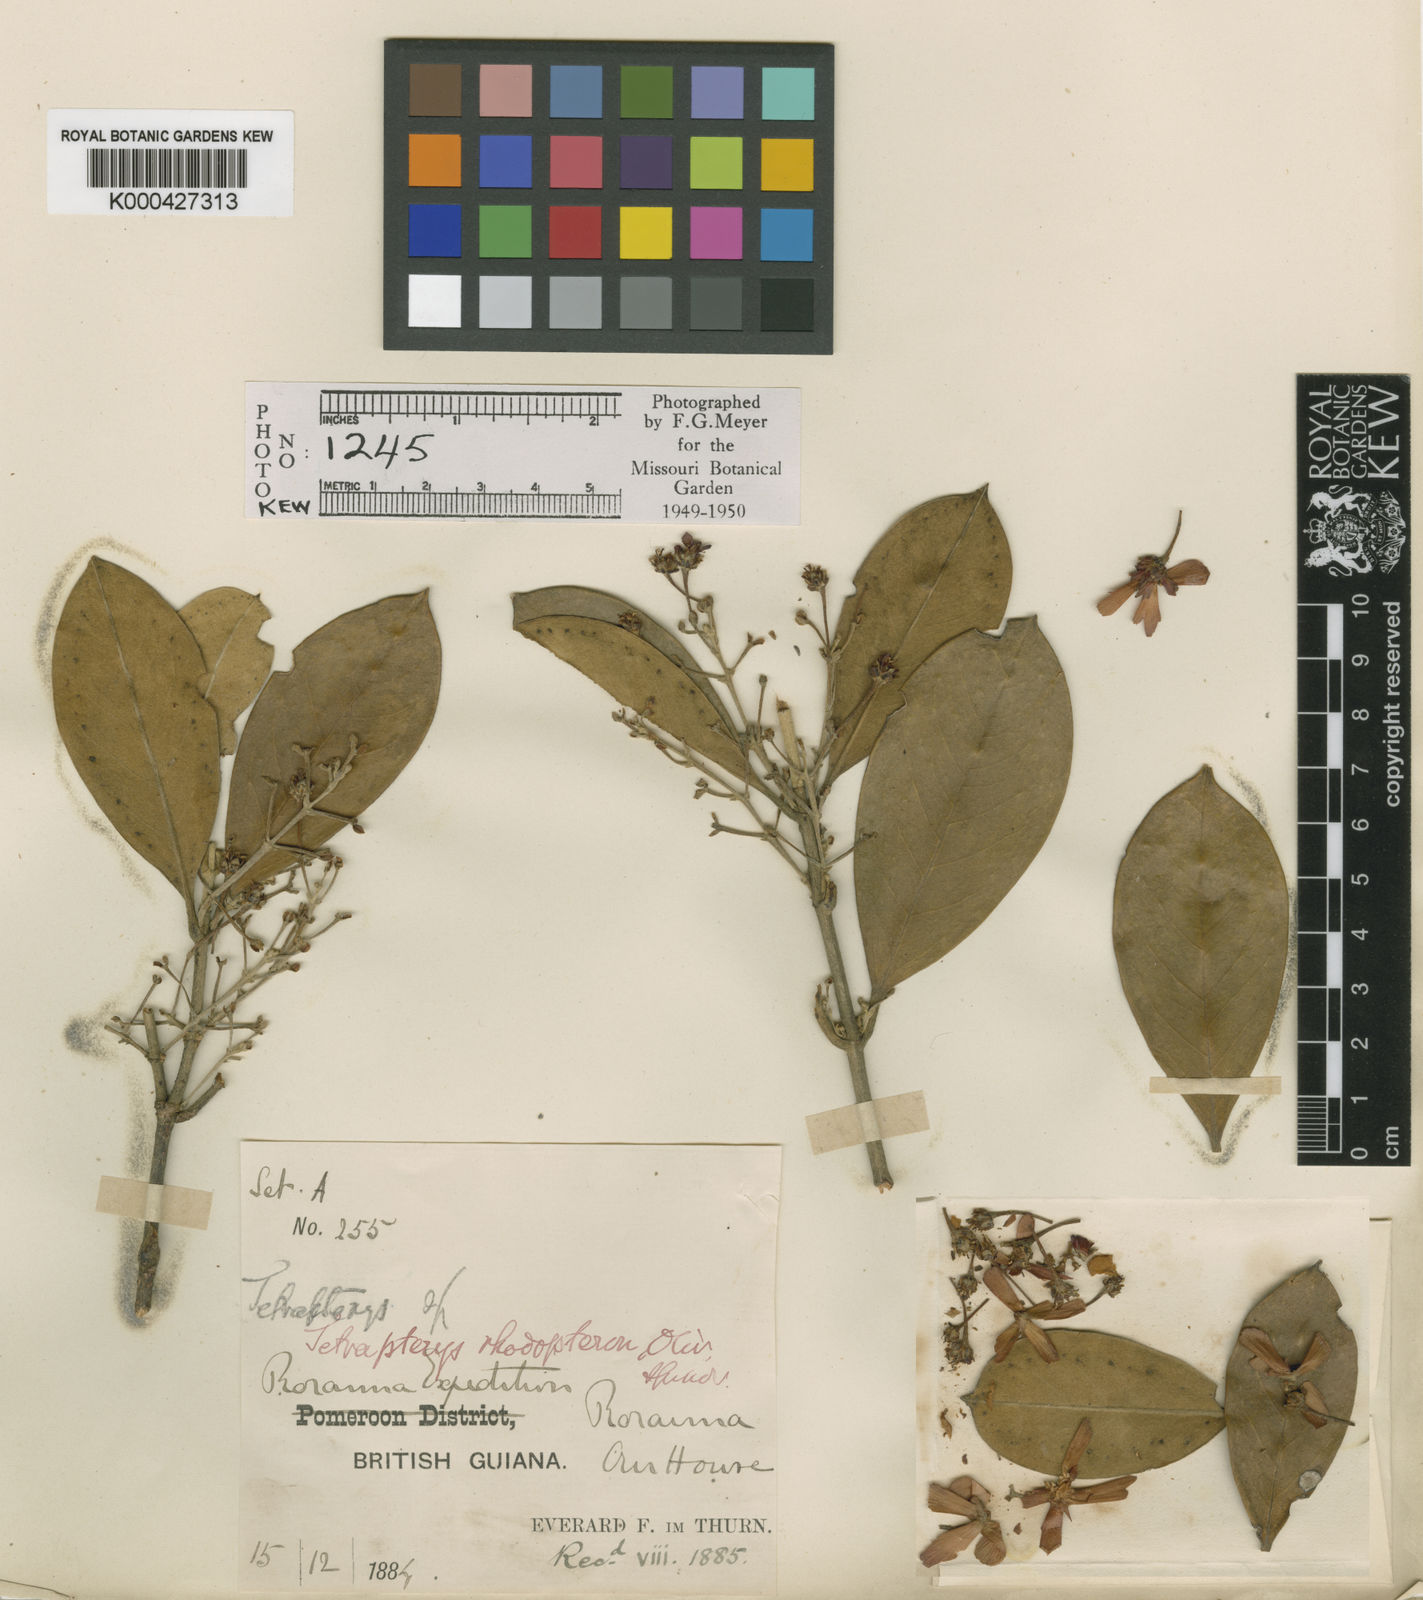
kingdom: Plantae
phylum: Tracheophyta
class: Magnoliopsida
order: Malpighiales
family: Malpighiaceae
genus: Glicophyllum
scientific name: Glicophyllum rhodopteron
